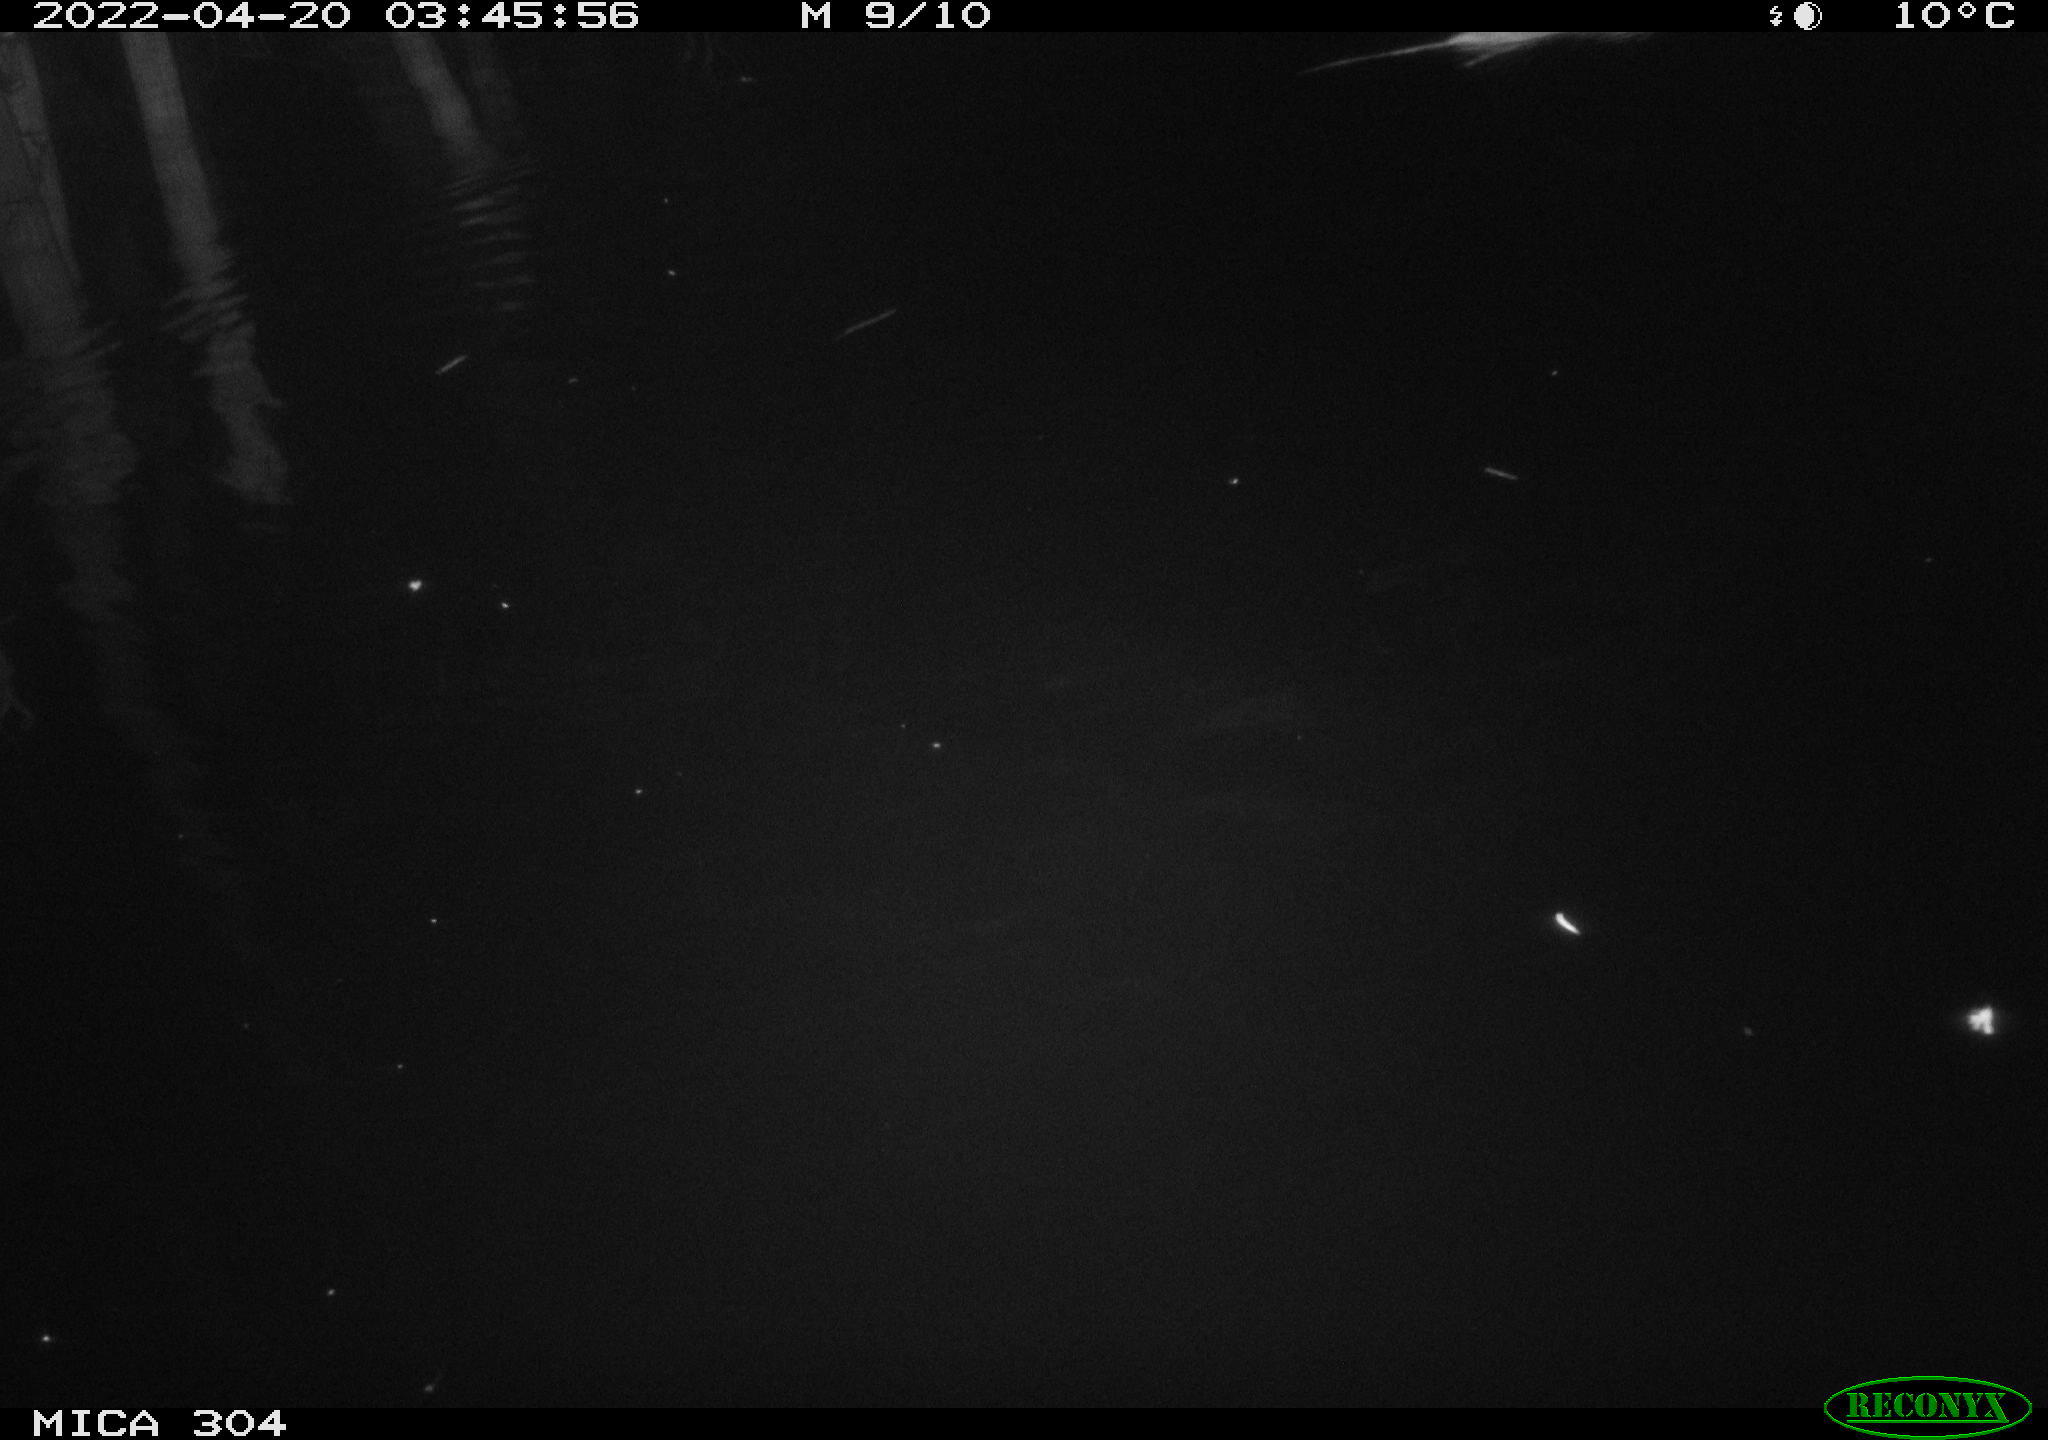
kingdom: Animalia
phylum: Chordata
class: Mammalia
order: Rodentia
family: Muridae
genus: Rattus
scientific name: Rattus norvegicus
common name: Brown rat
